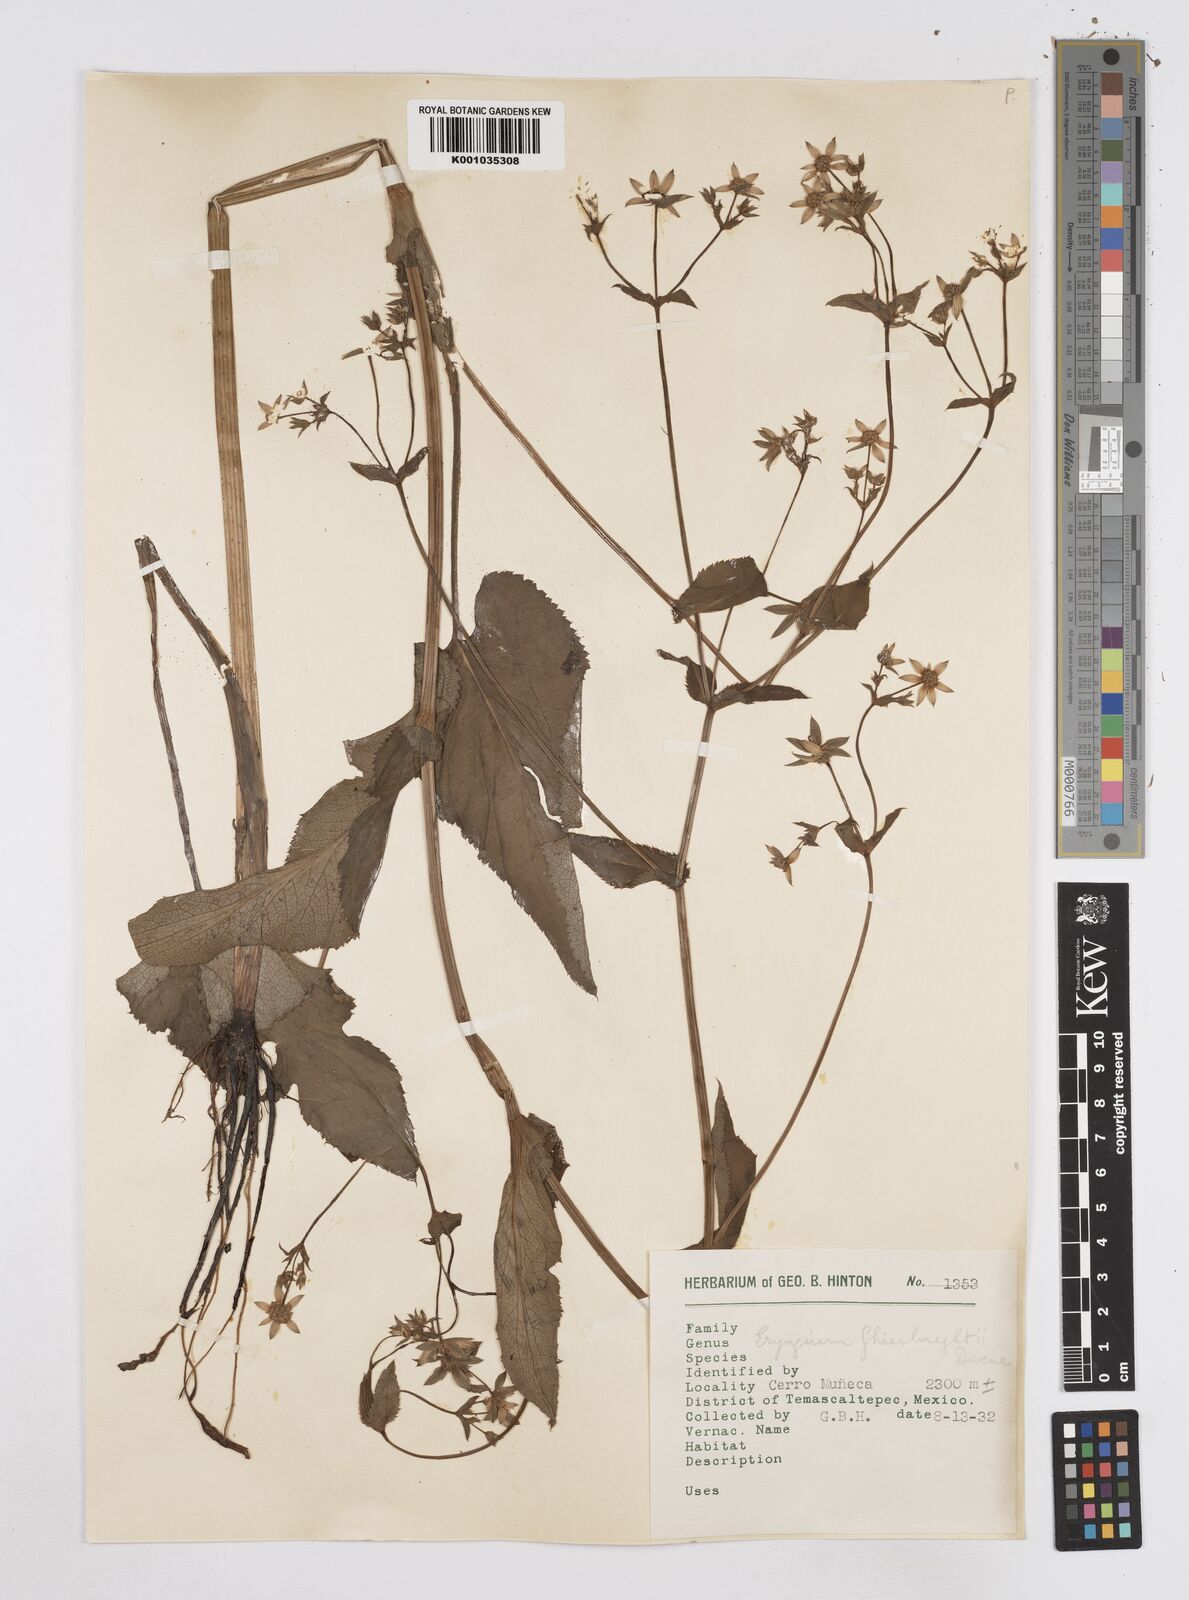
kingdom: Plantae
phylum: Tracheophyta
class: Magnoliopsida
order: Apiales
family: Apiaceae
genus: Eryngium
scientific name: Eryngium ghiesbreghtii
